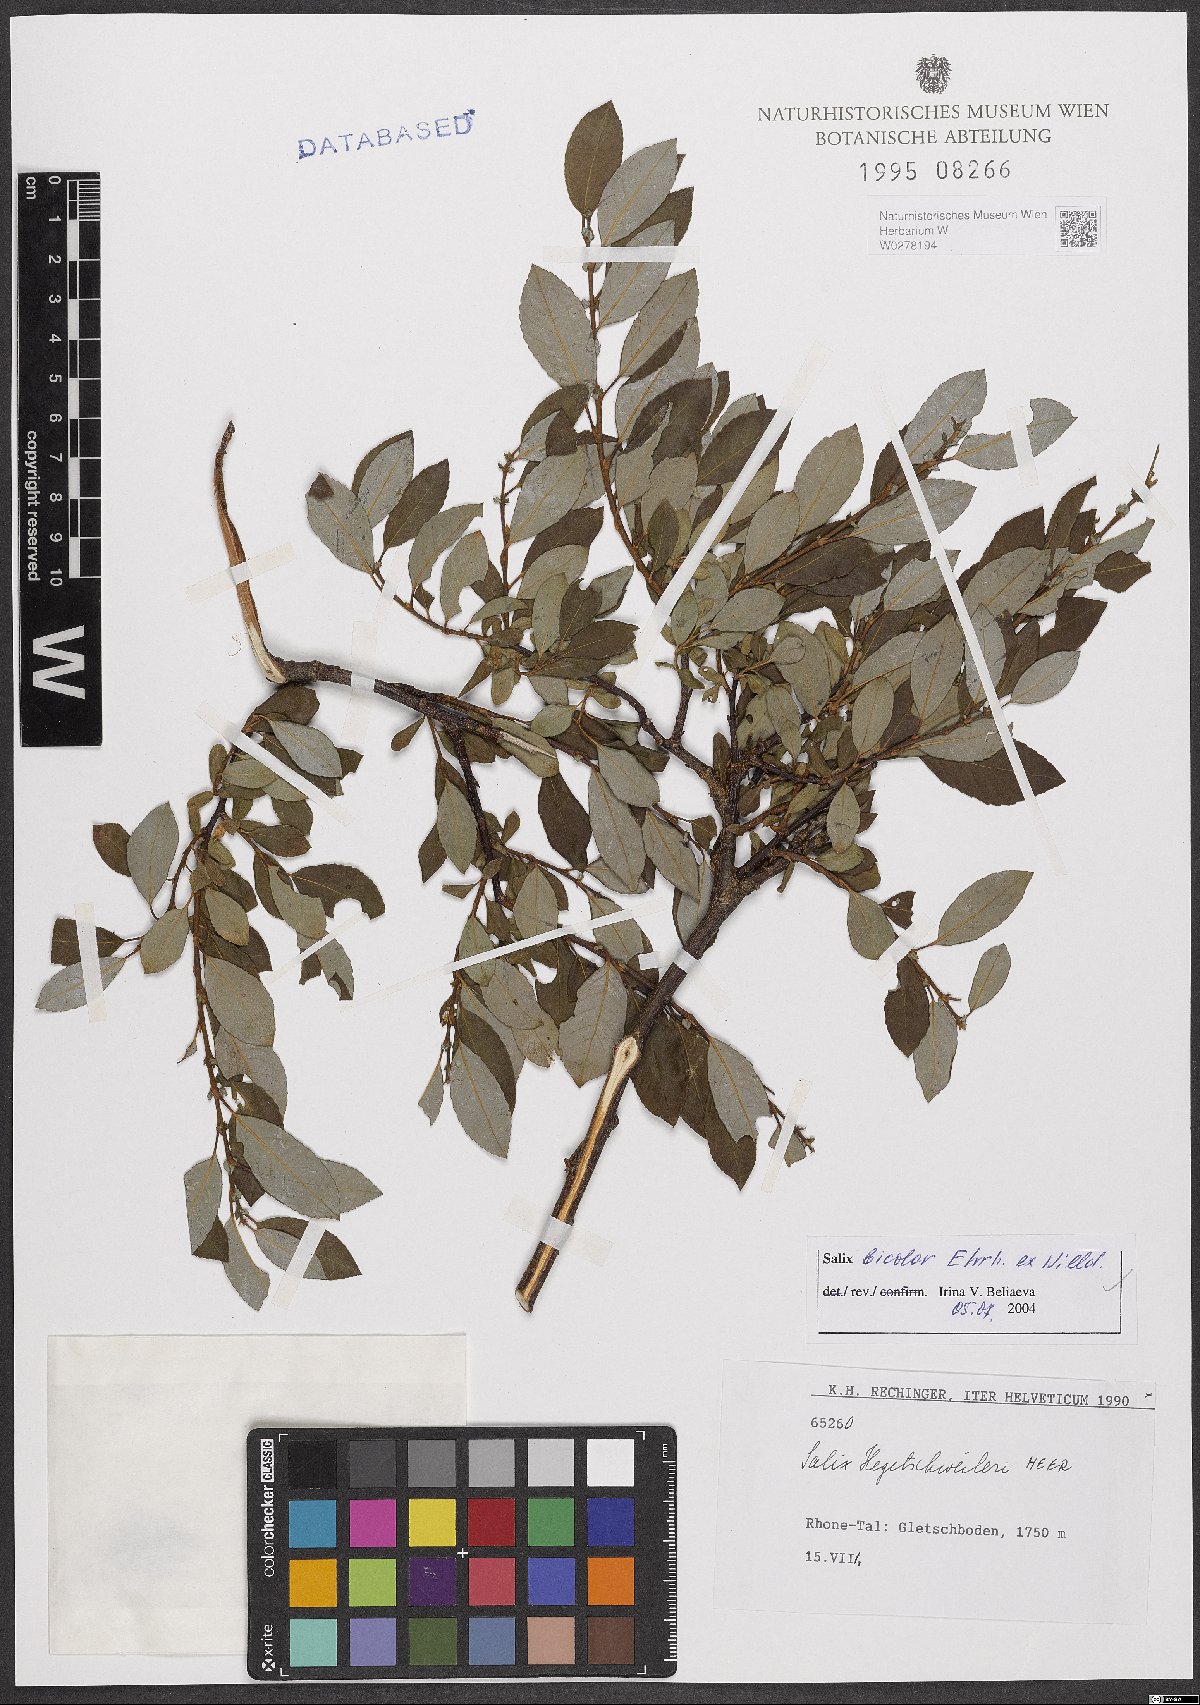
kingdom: Plantae
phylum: Tracheophyta
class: Magnoliopsida
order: Malpighiales
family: Salicaceae
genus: Salix
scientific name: Salix bicolor
